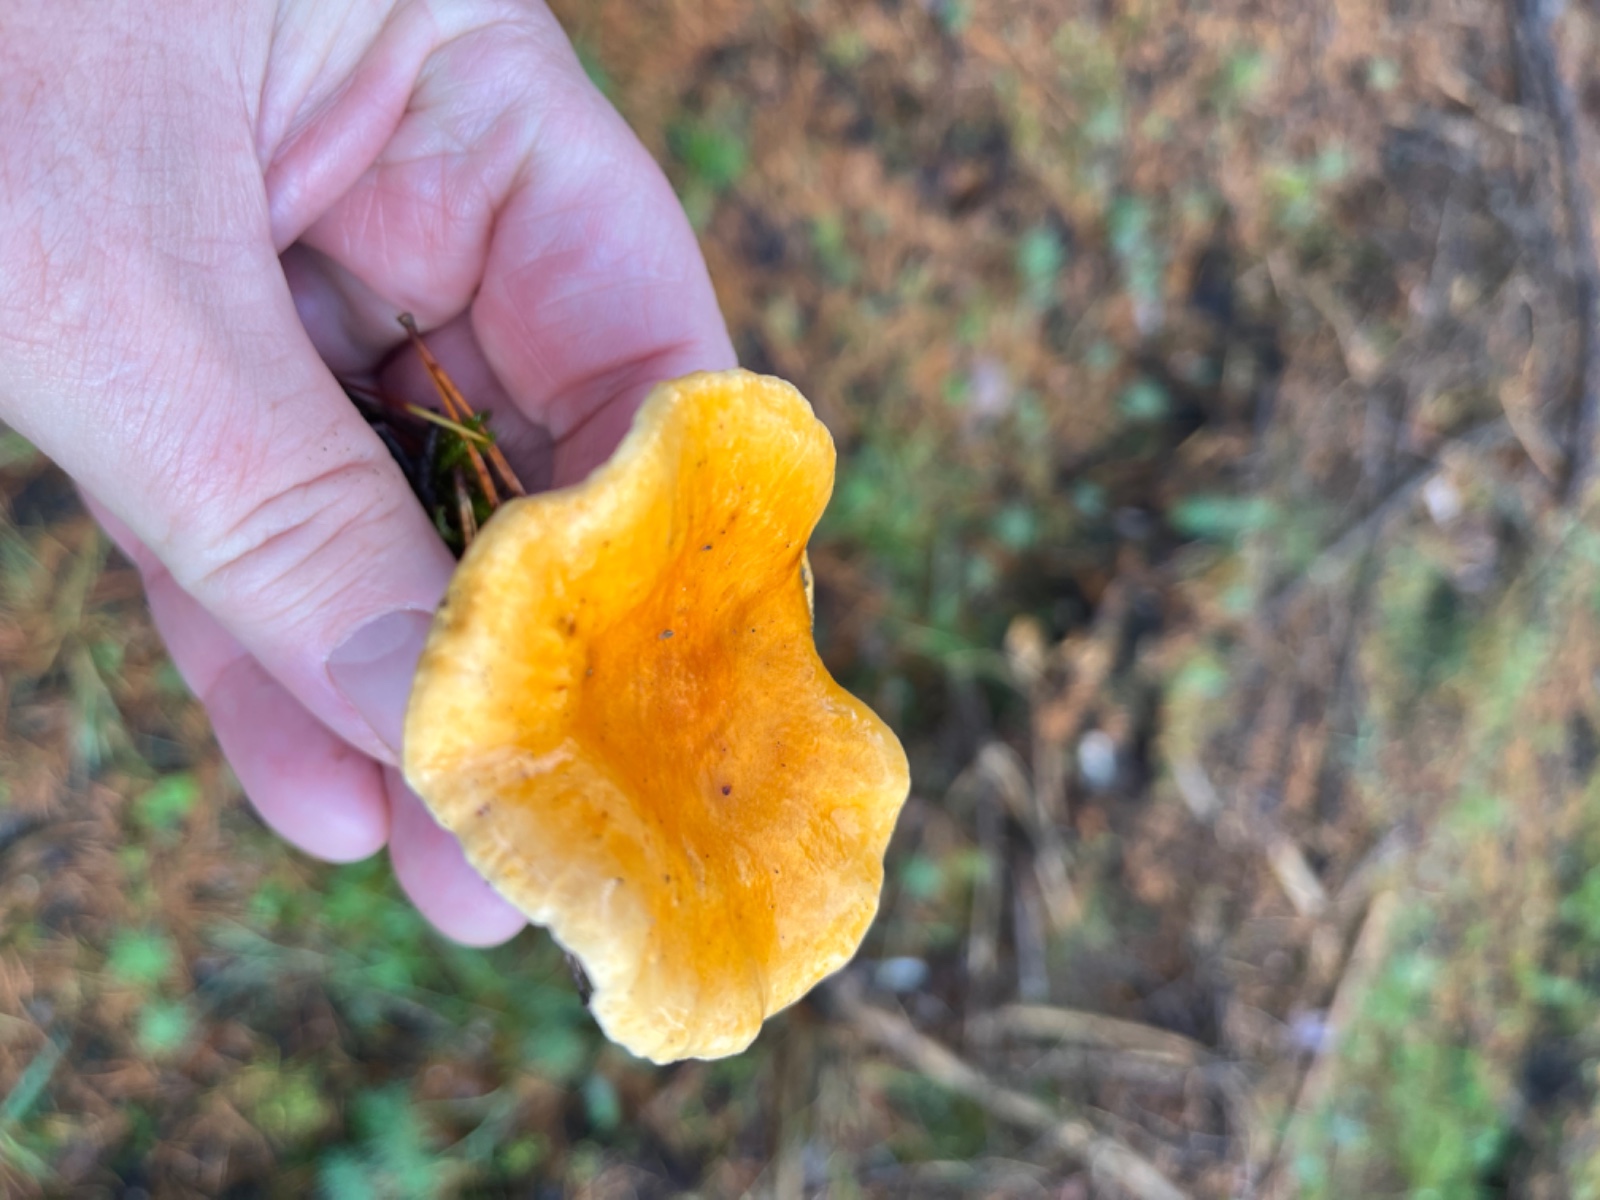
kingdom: Fungi
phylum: Basidiomycota
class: Agaricomycetes
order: Boletales
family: Hygrophoropsidaceae
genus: Hygrophoropsis
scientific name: Hygrophoropsis aurantiaca
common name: almindelig orangekantarel
